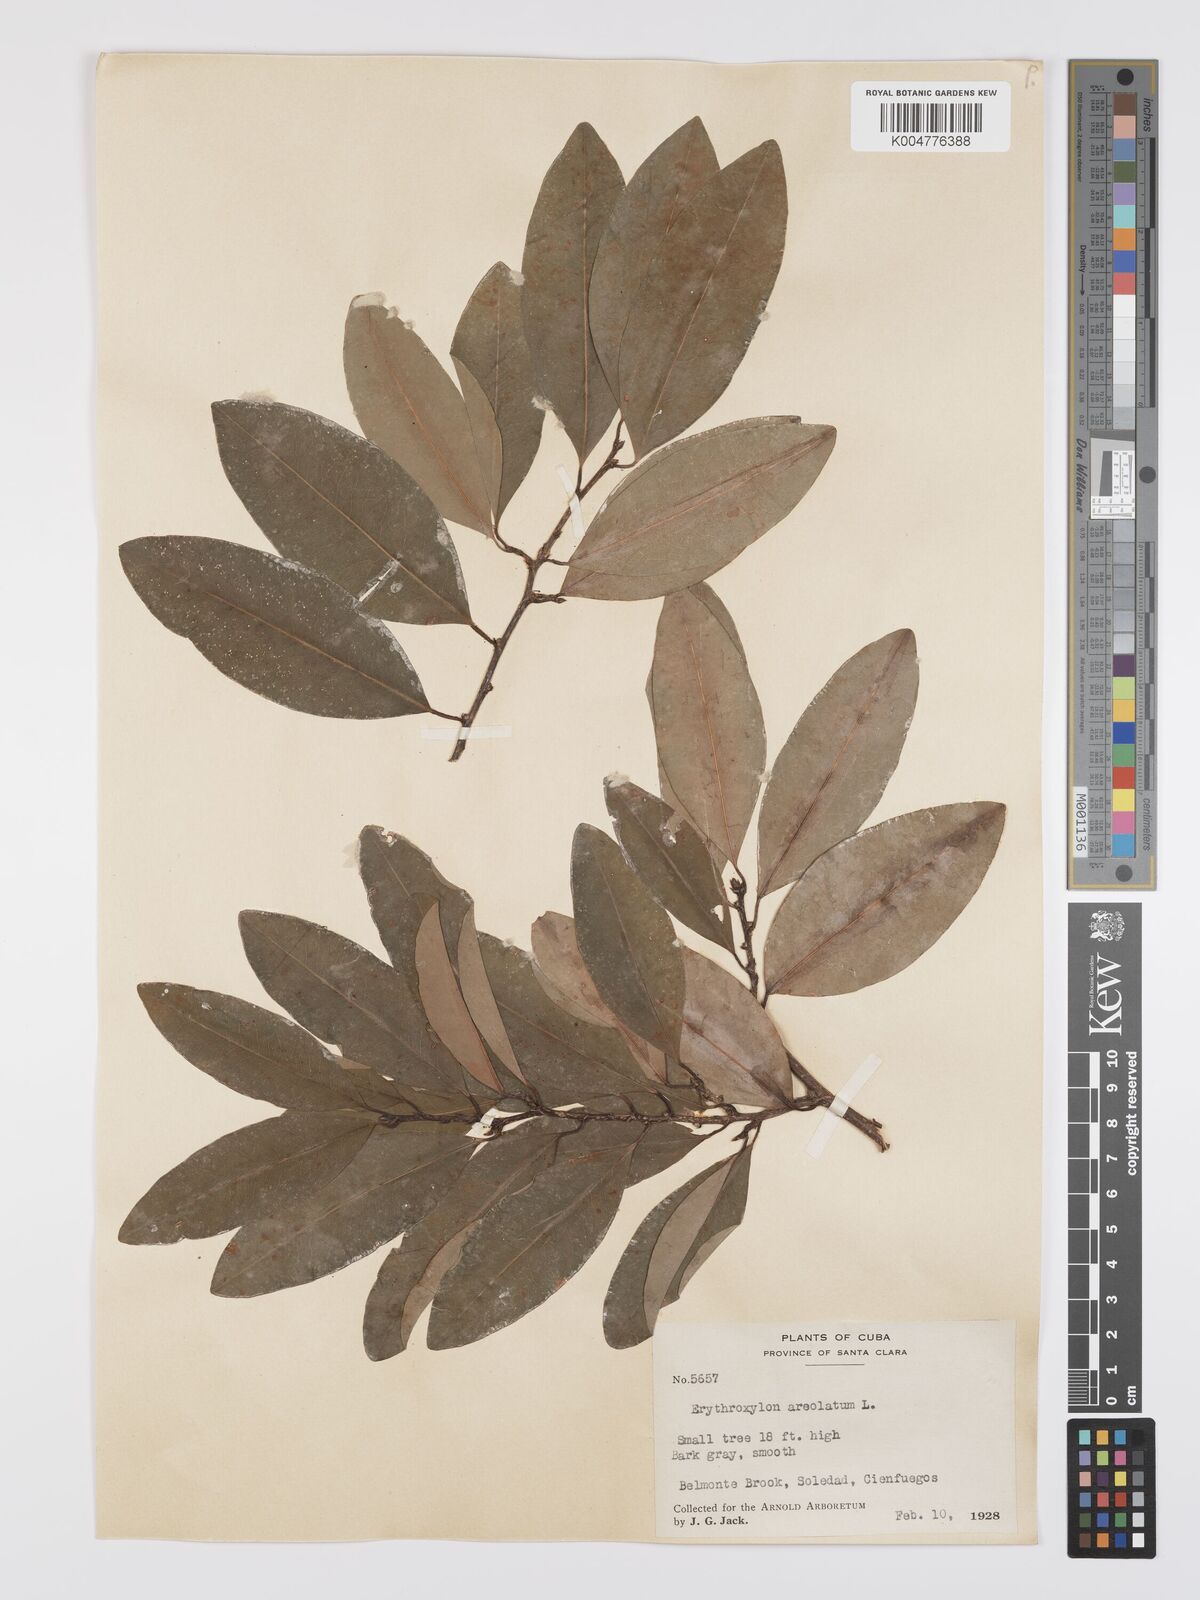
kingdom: Plantae
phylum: Tracheophyta
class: Magnoliopsida
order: Malpighiales
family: Erythroxylaceae
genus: Erythroxylum
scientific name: Erythroxylum areolatum
